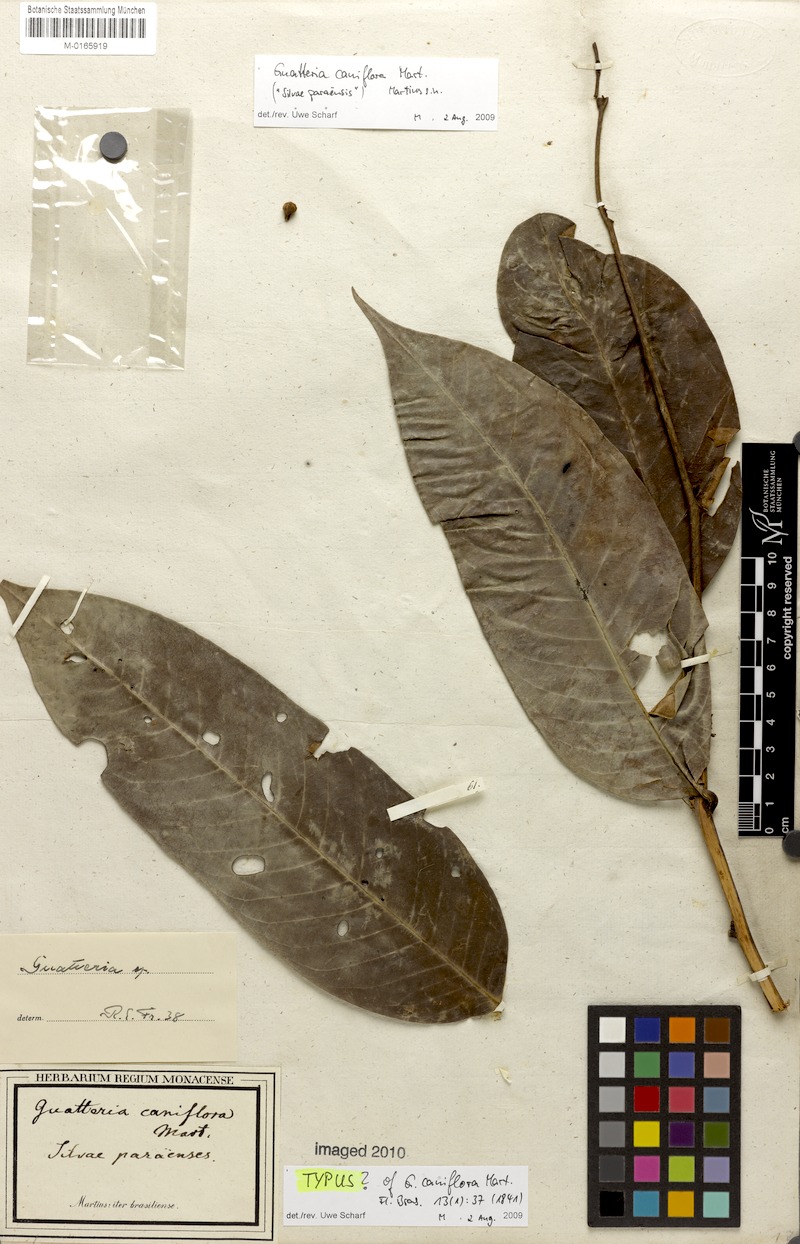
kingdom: Plantae
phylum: Tracheophyta
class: Magnoliopsida
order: Magnoliales
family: Annonaceae
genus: Guatteria
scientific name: Guatteria caniflora
